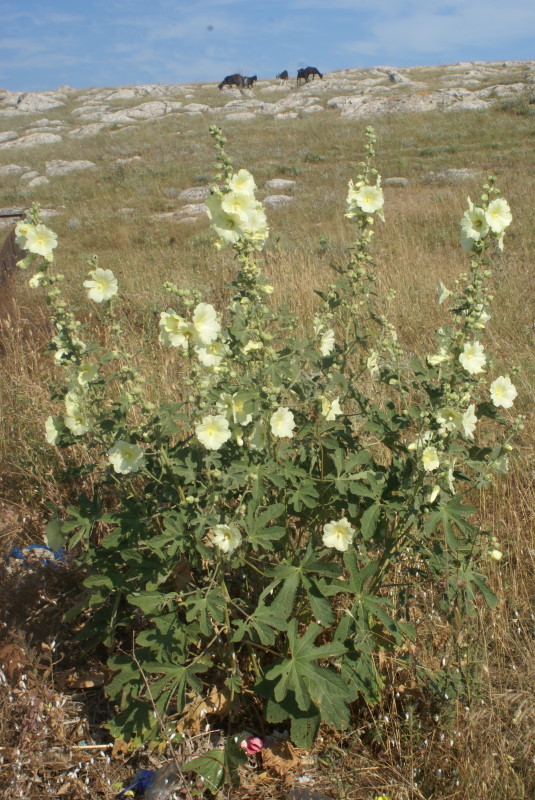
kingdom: Plantae
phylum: Tracheophyta
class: Magnoliopsida
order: Malvales
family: Malvaceae
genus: Alcea
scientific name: Alcea rugosa
